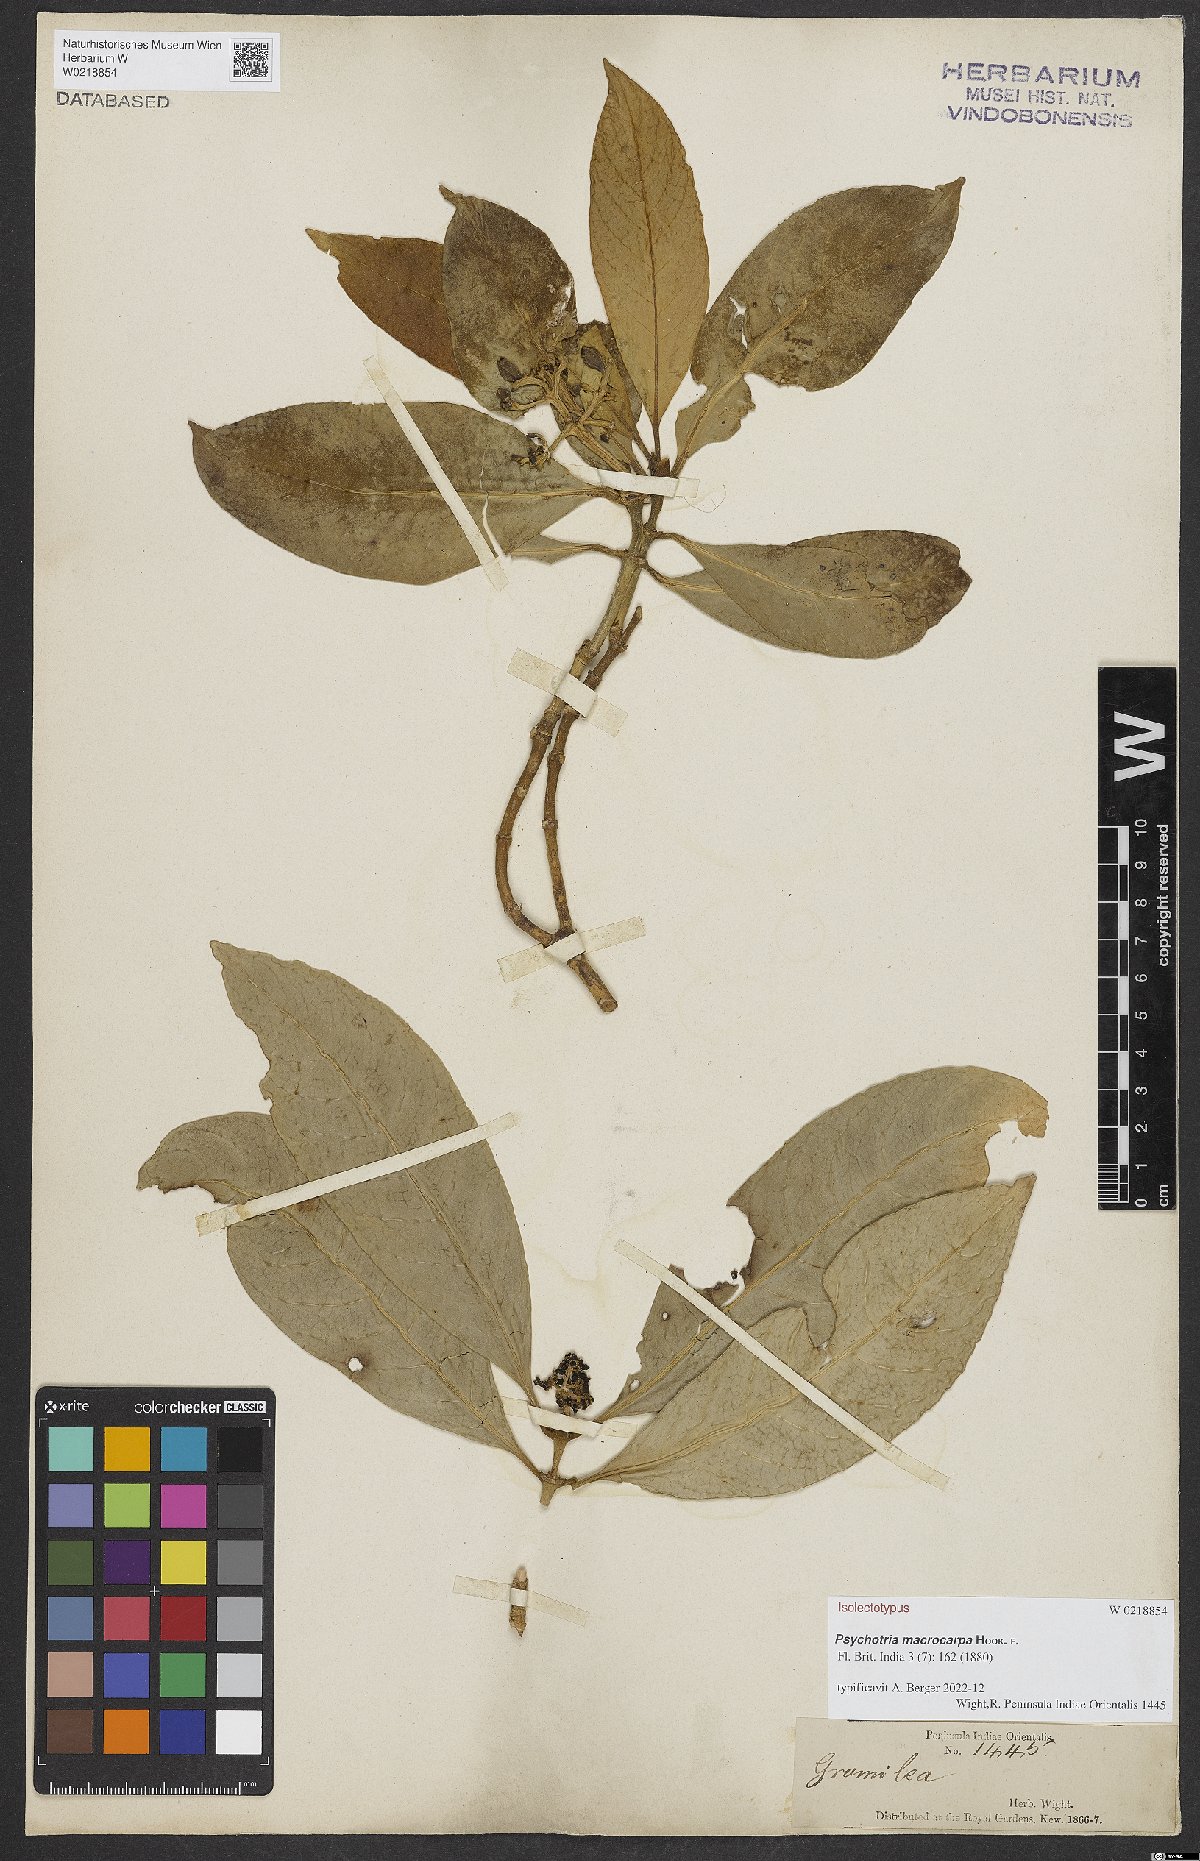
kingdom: Plantae
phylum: Tracheophyta
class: Magnoliopsida
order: Gentianales
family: Rubiaceae
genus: Psychotria
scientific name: Psychotria macrocarpa
